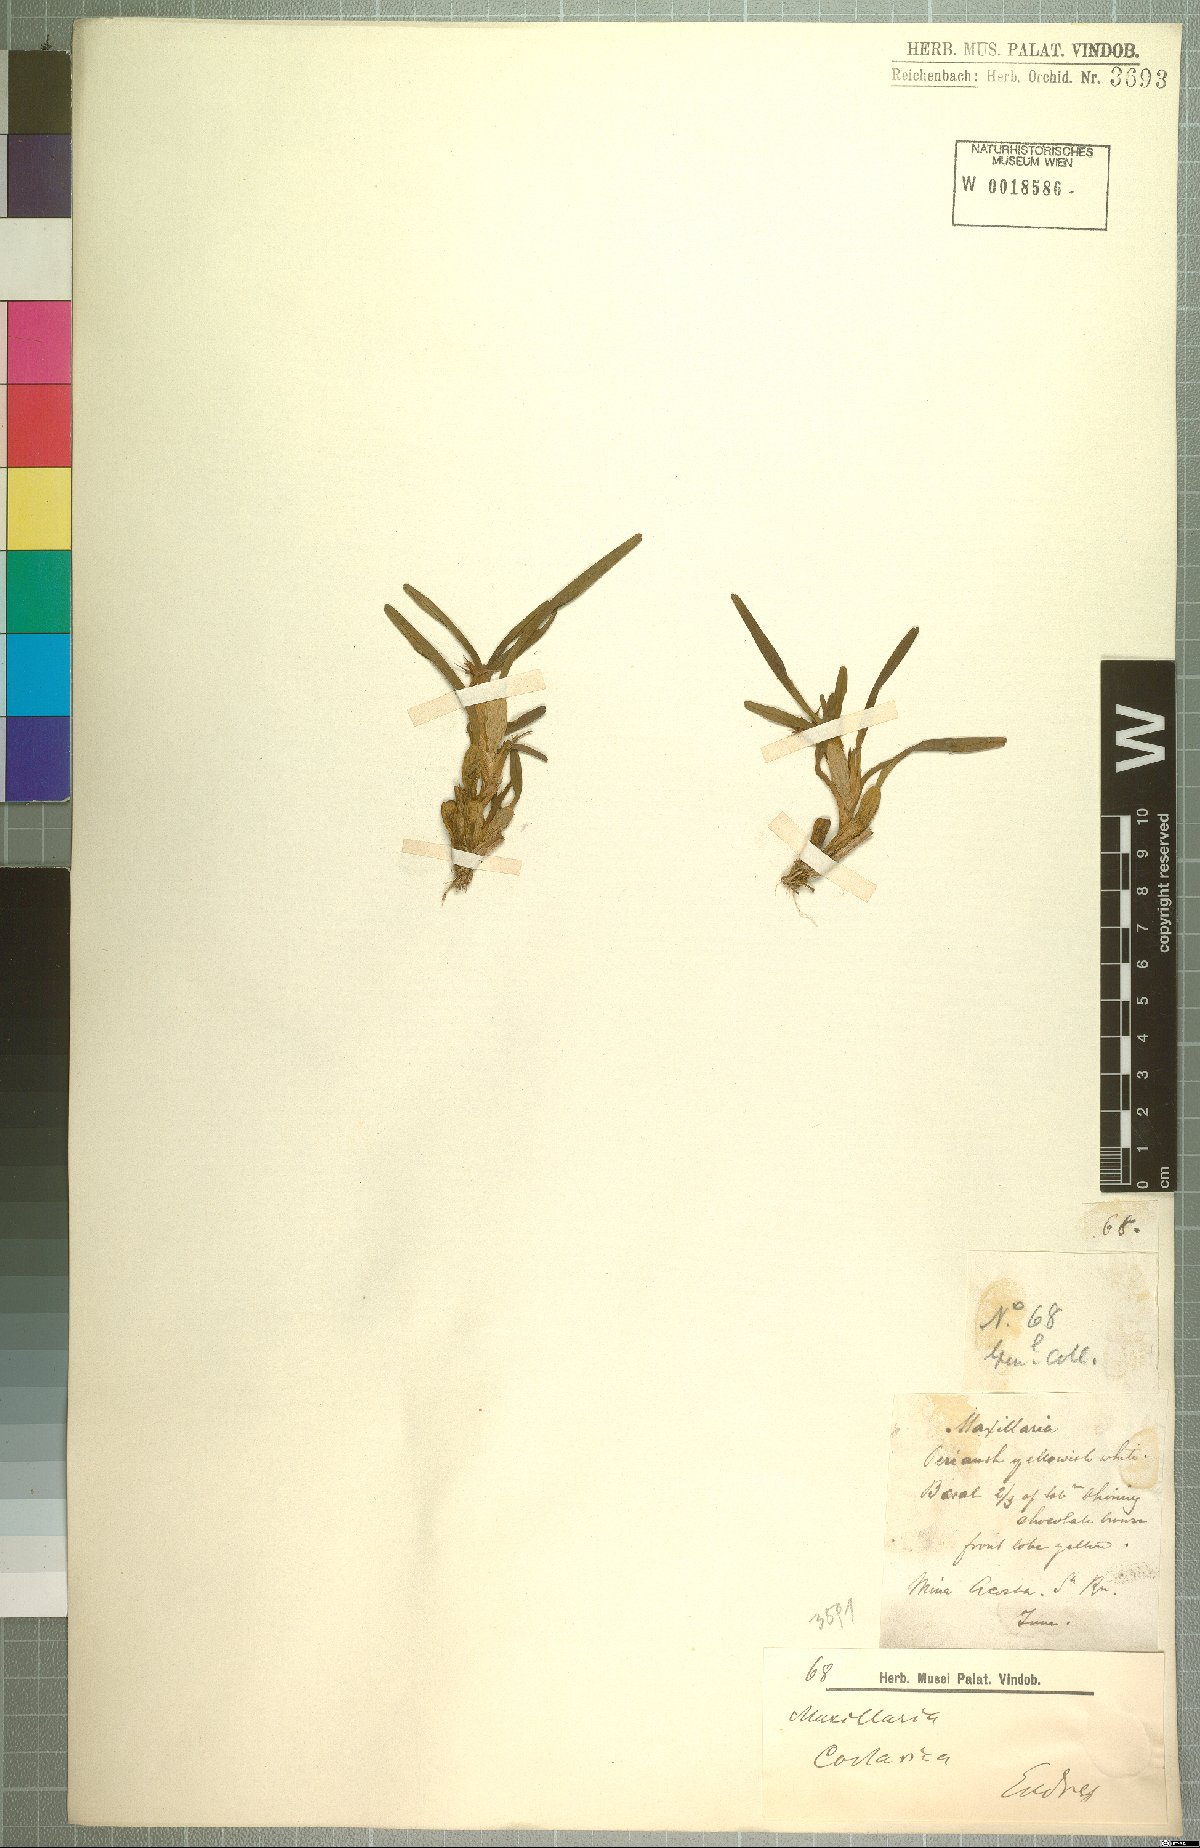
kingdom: Plantae
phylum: Tracheophyta
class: Liliopsida
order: Asparagales
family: Orchidaceae
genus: Maxillaria
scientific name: Maxillaria
